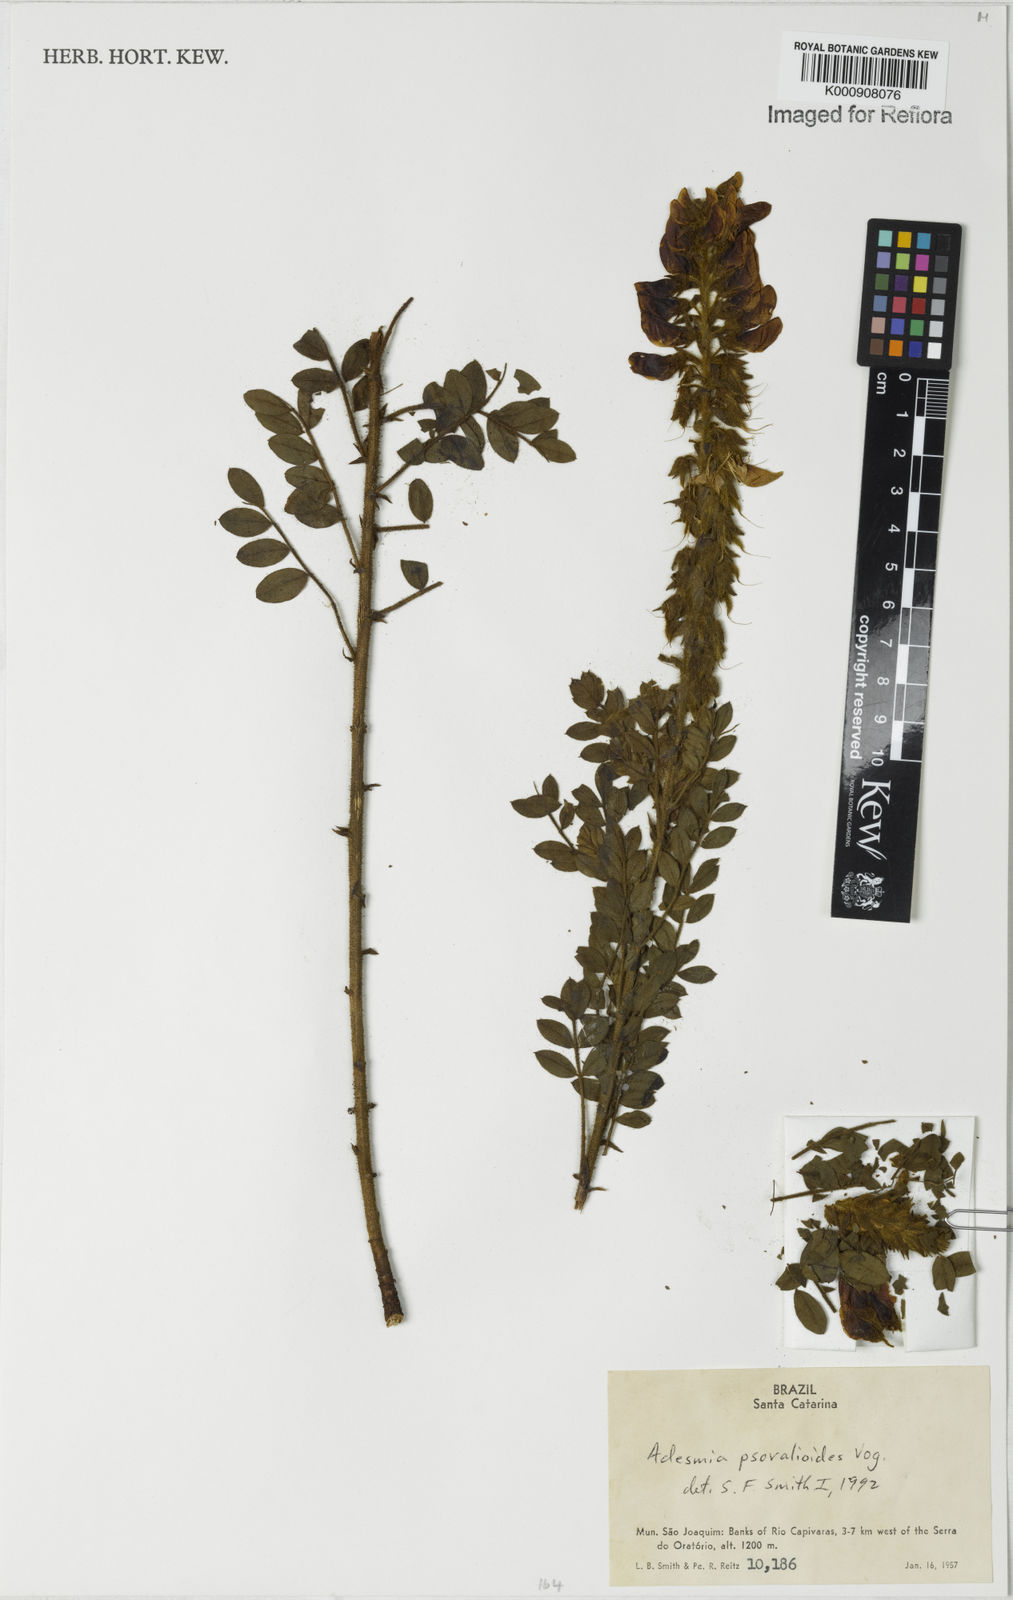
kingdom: Plantae
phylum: Tracheophyta
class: Magnoliopsida
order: Fabales
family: Fabaceae
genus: Adesmia
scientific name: Adesmia psoraleoides
